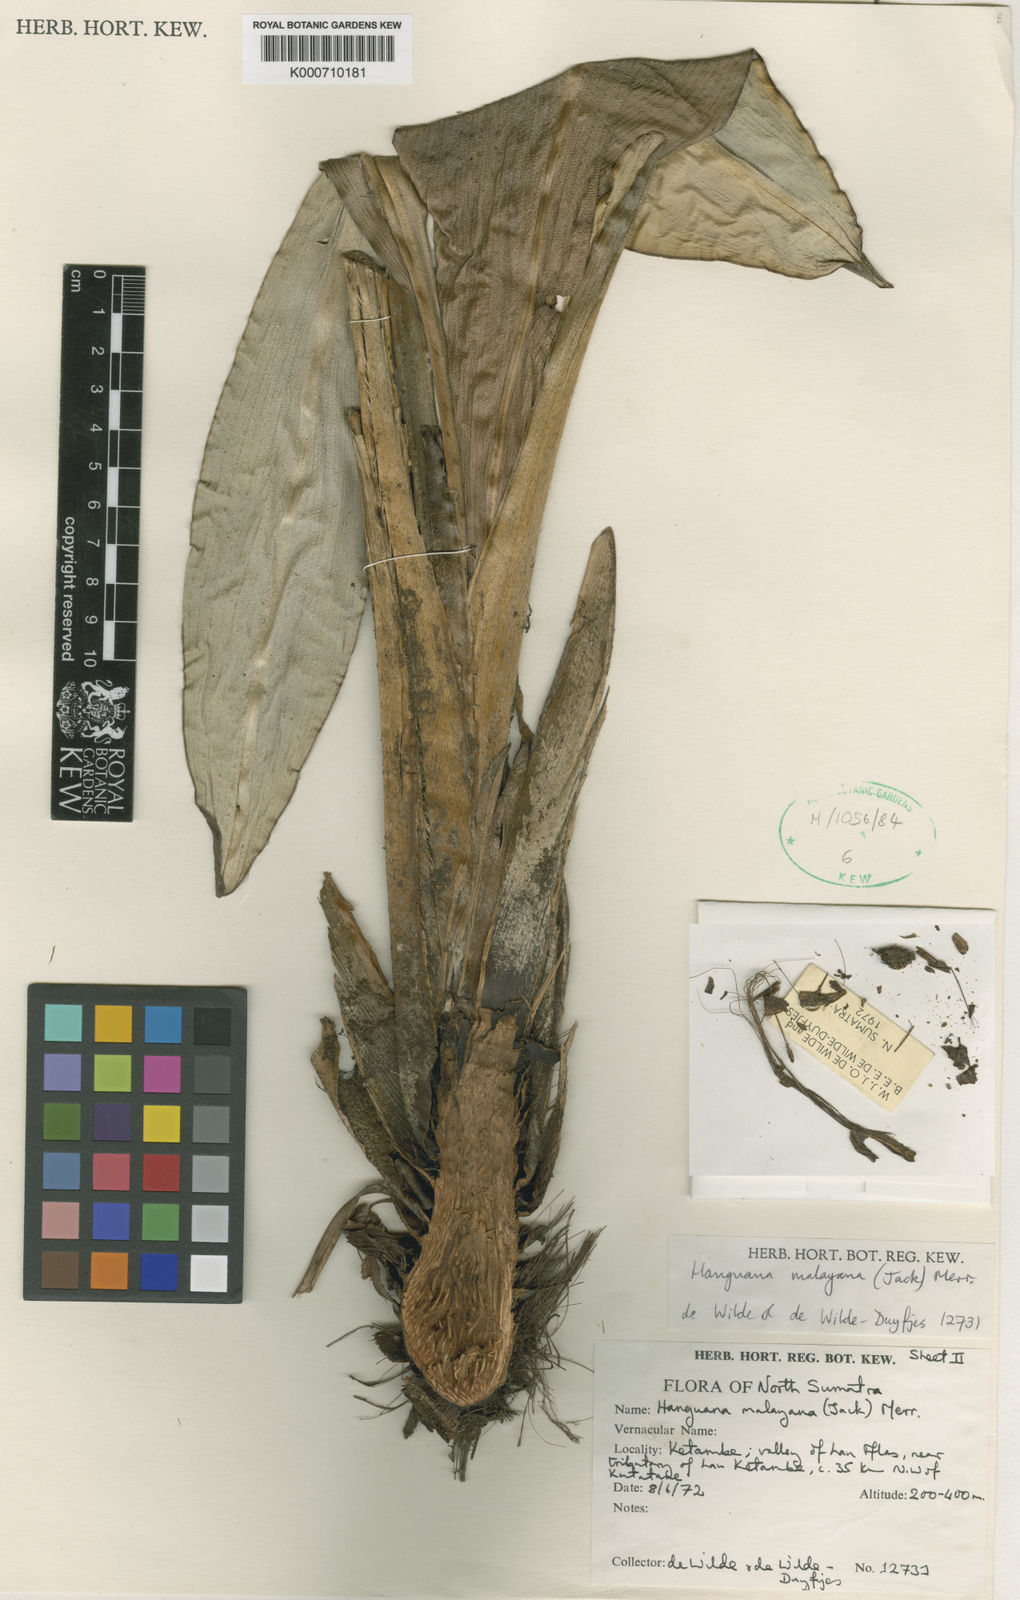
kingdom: Plantae
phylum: Tracheophyta
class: Liliopsida
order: Commelinales
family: Hanguanaceae
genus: Hanguana
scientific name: Hanguana malayana
